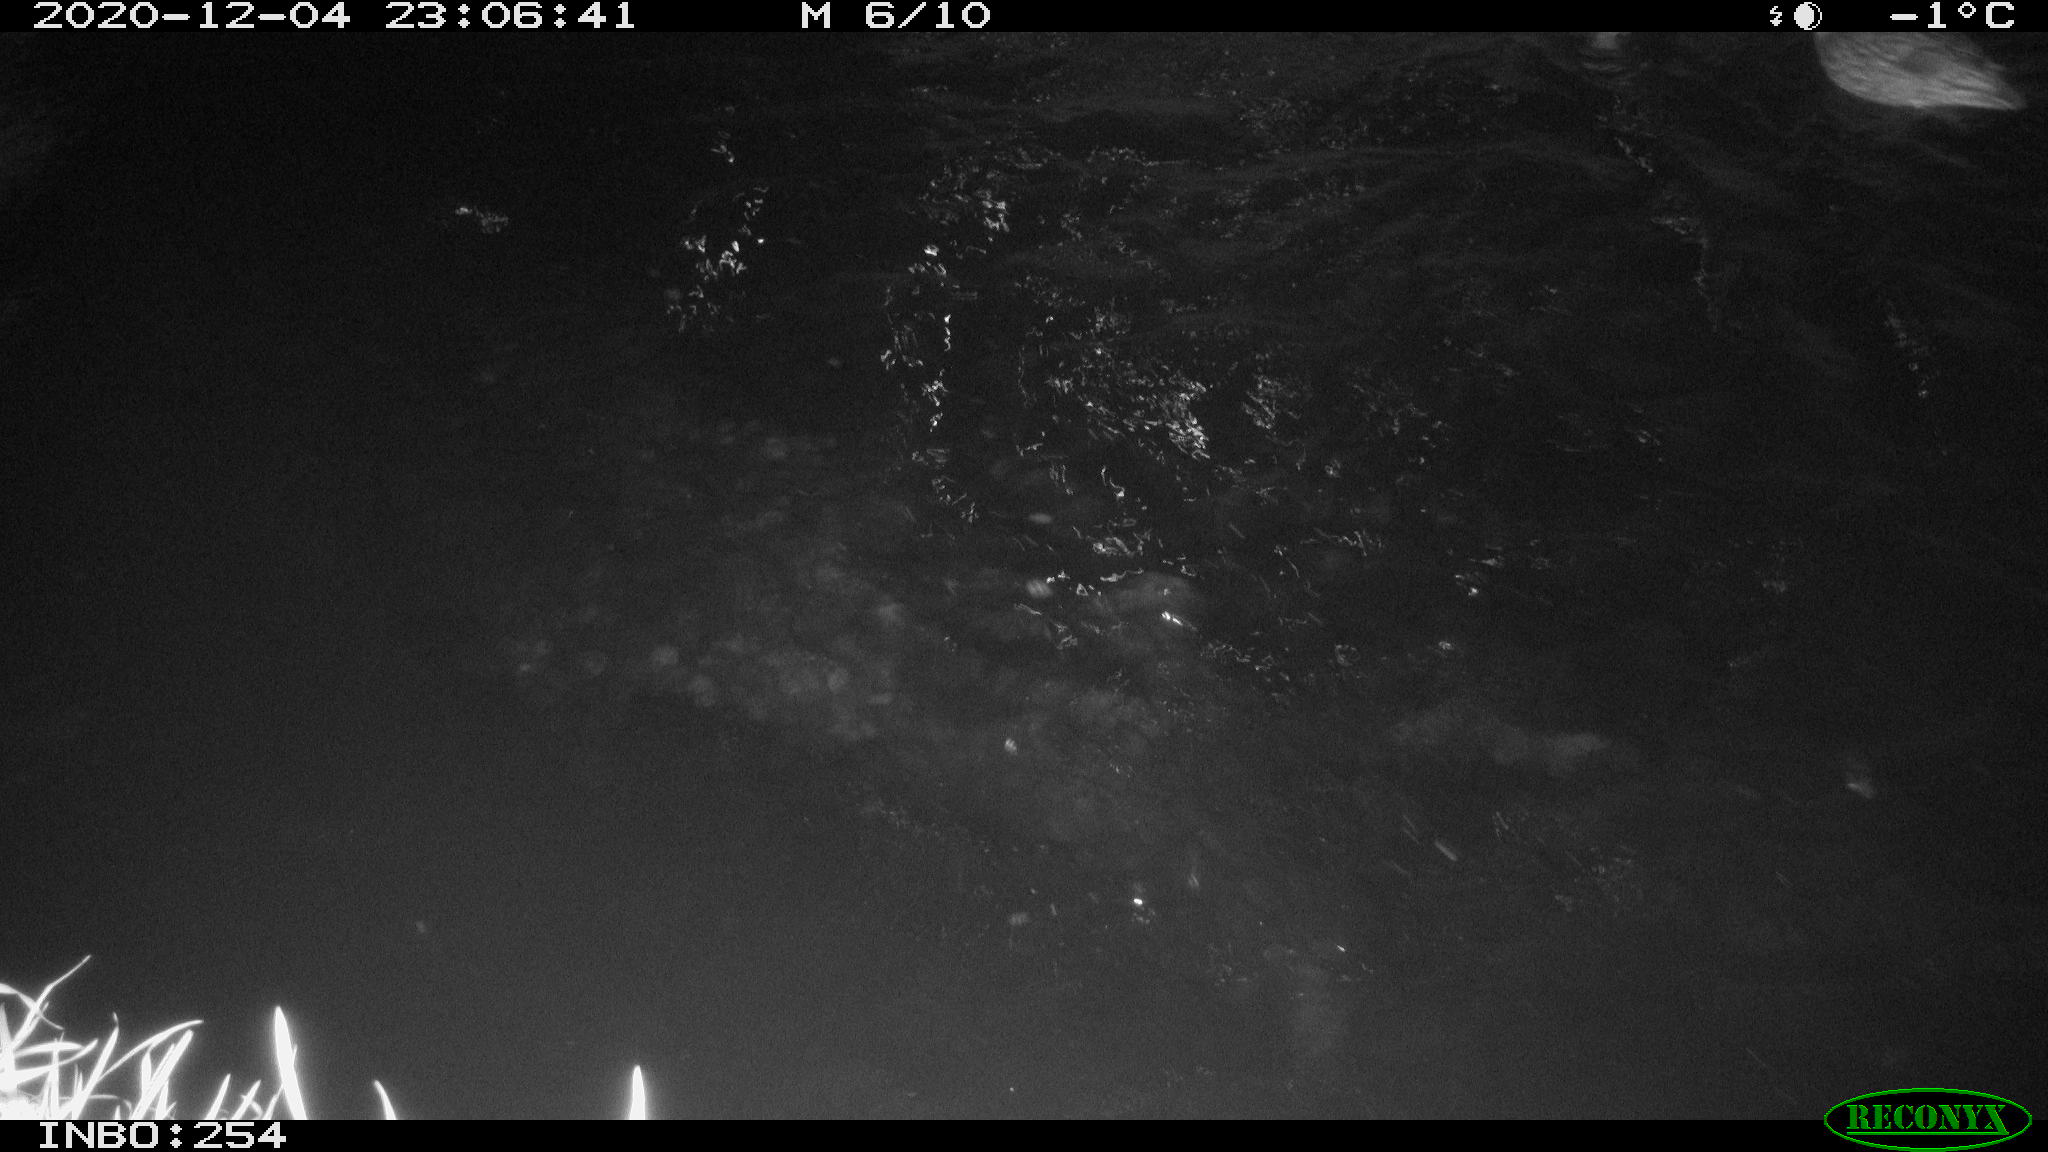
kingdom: Animalia
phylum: Chordata
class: Aves
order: Anseriformes
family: Anatidae
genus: Anas
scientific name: Anas platyrhynchos
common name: Mallard
